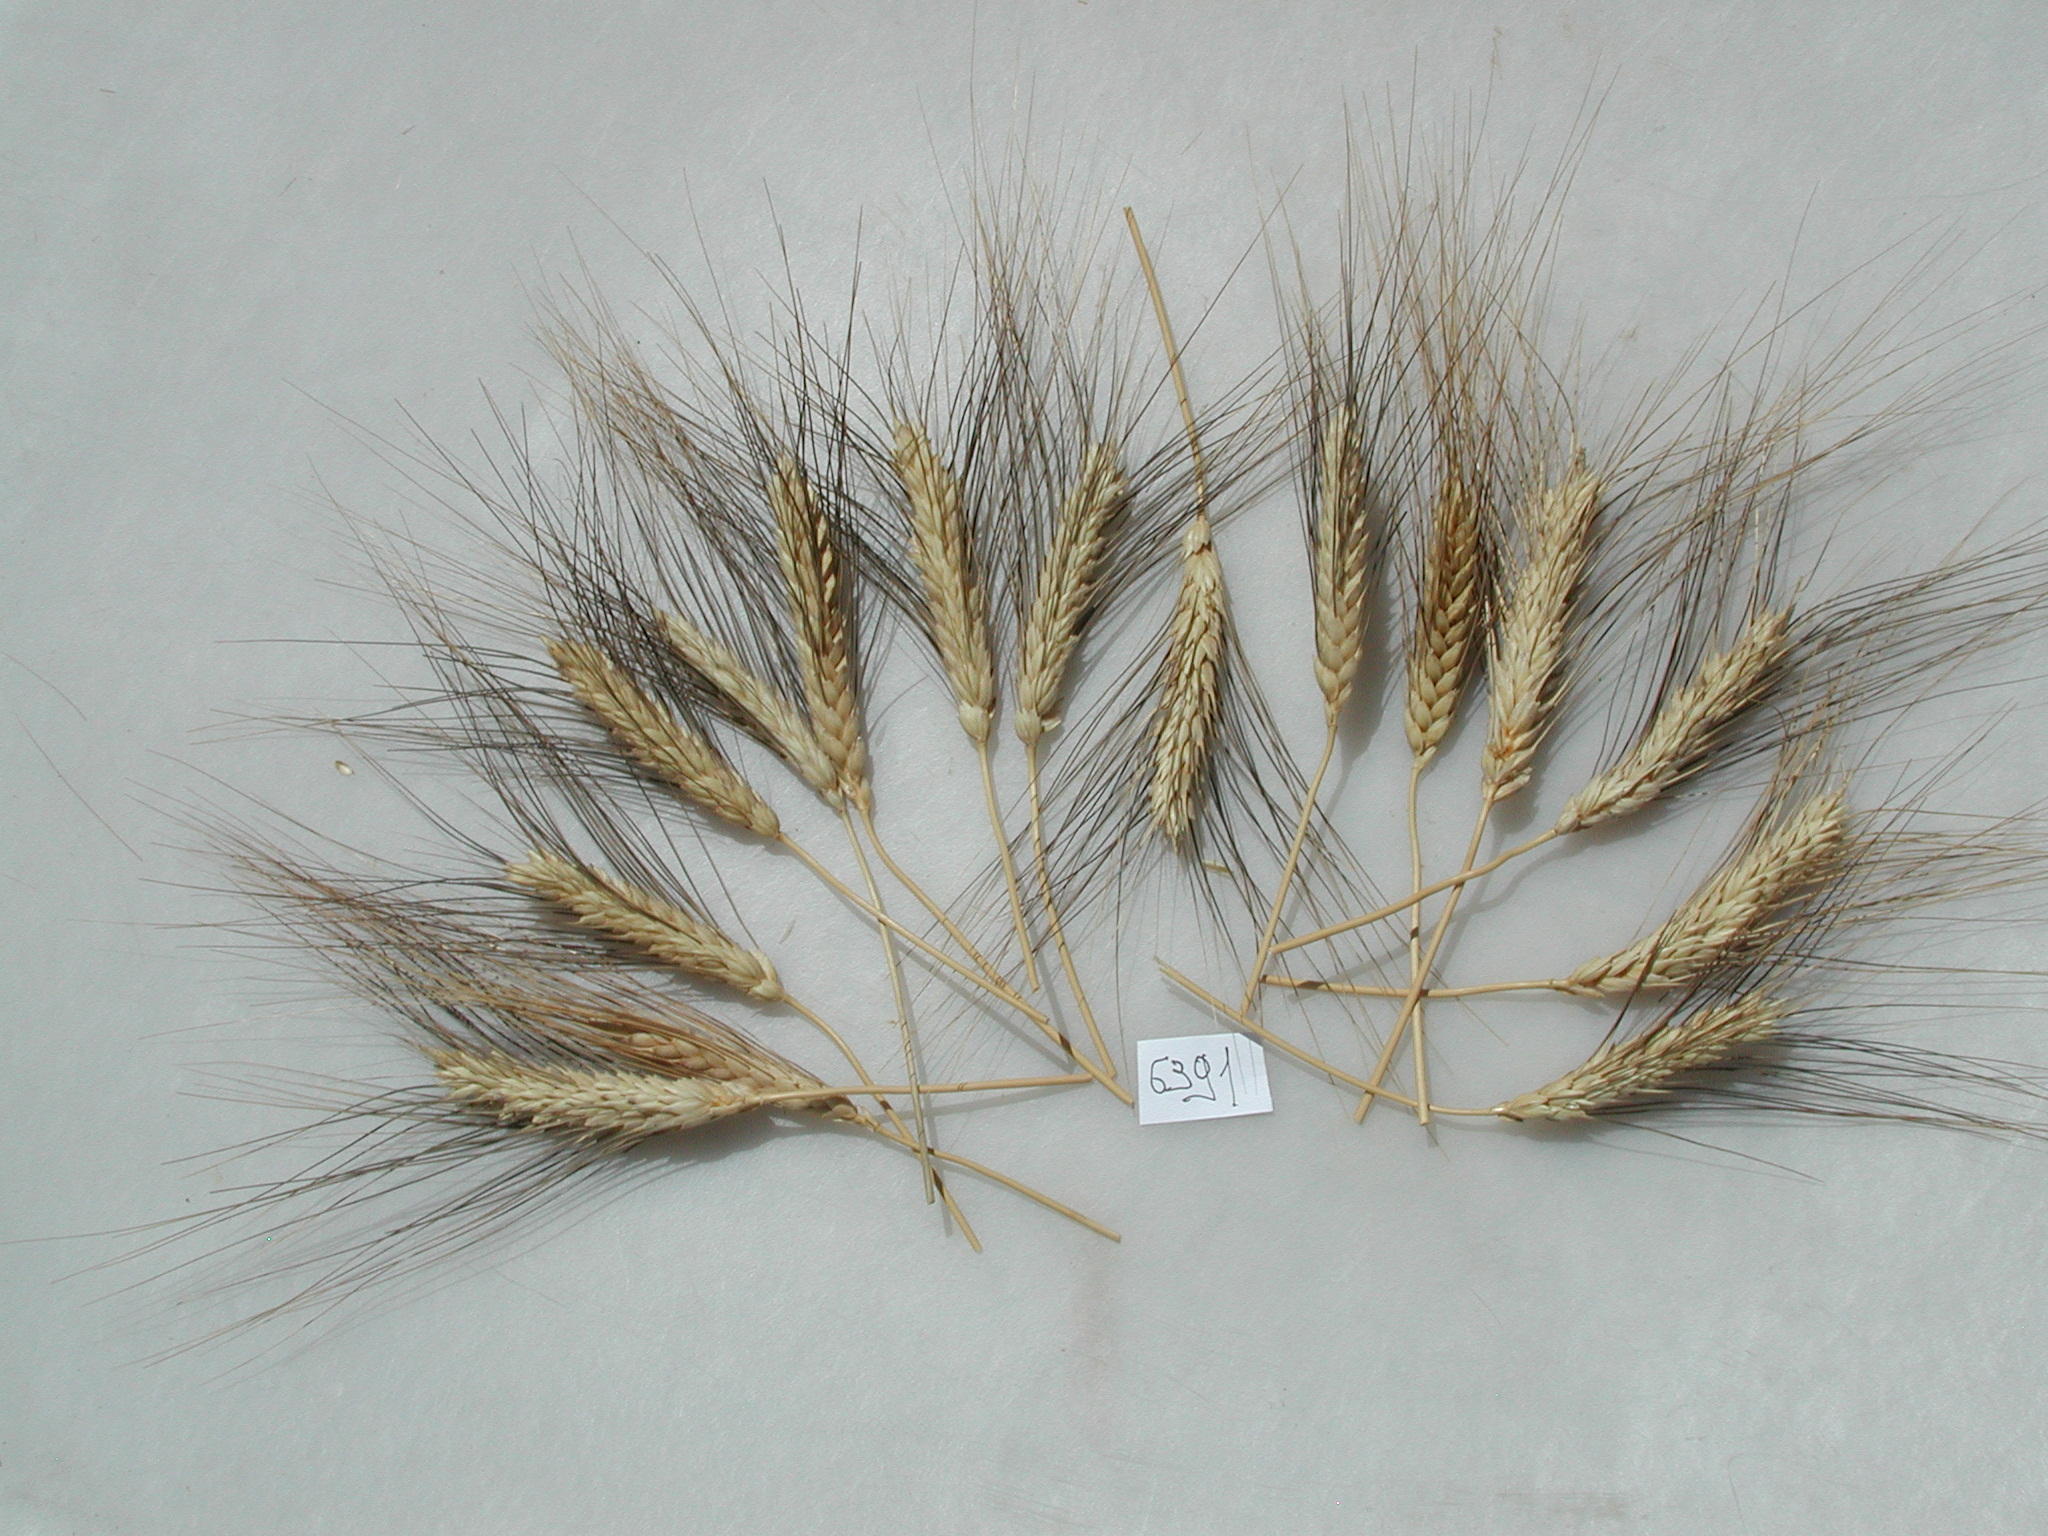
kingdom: Plantae
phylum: Tracheophyta
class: Liliopsida
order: Poales
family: Poaceae
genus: Triticum
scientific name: Triticum aestivum
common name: Wheat
